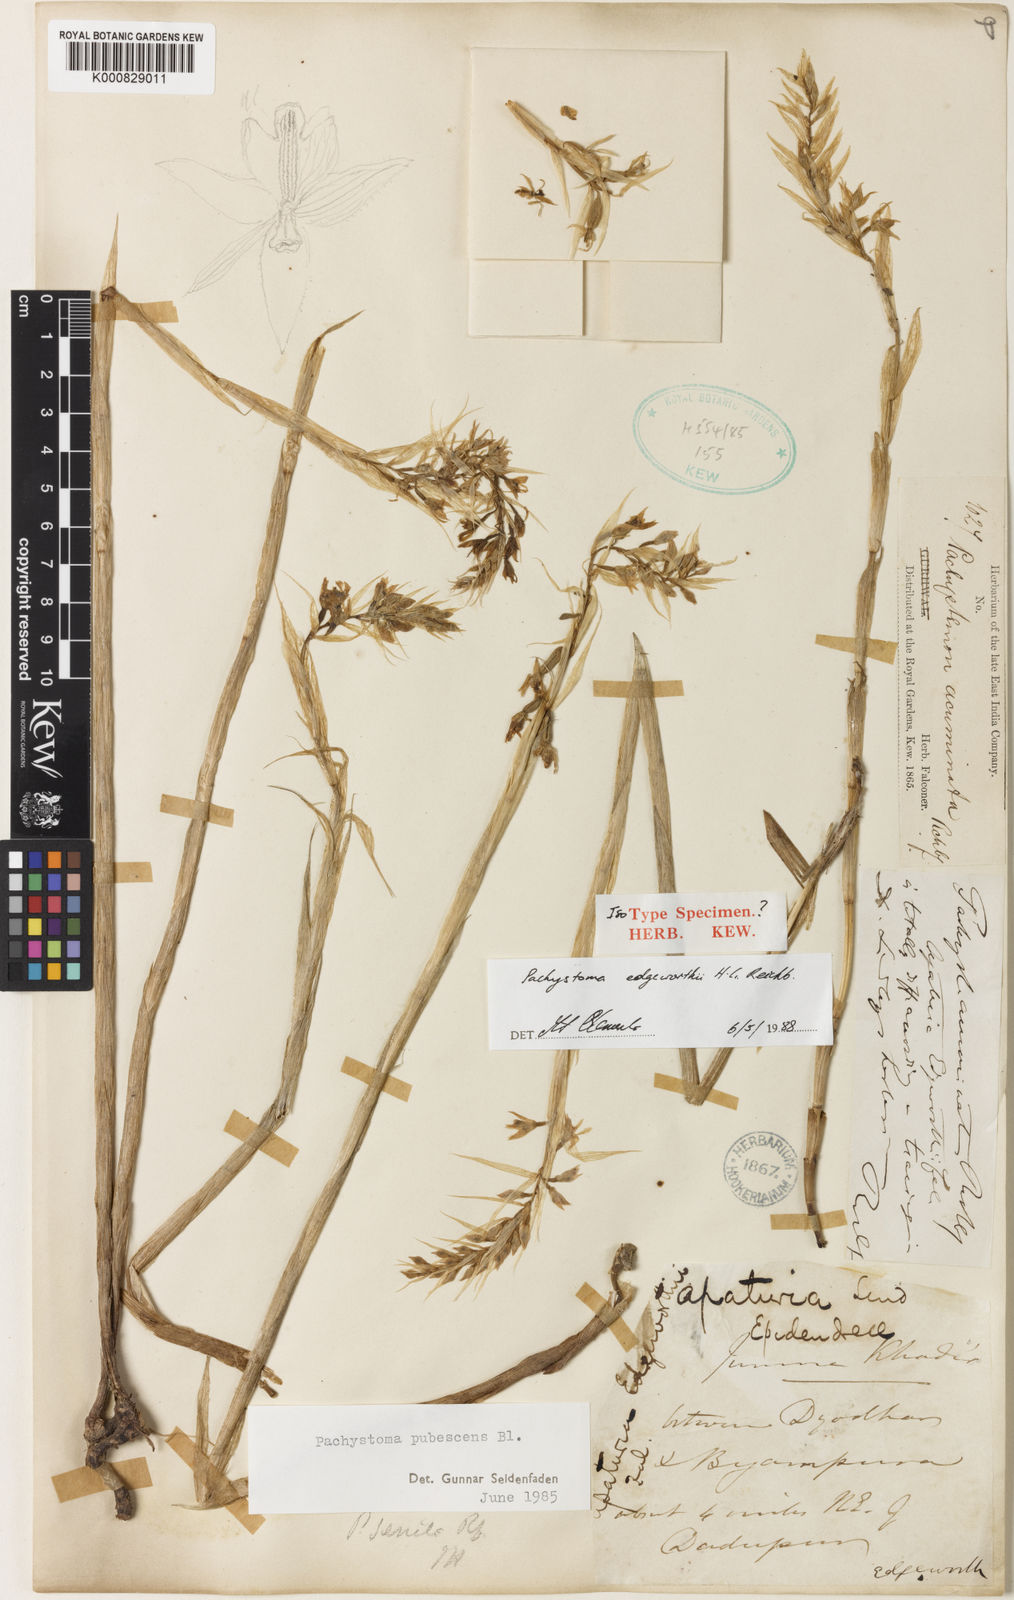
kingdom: Plantae
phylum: Tracheophyta
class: Liliopsida
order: Asparagales
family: Orchidaceae
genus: Pachystoma
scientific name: Pachystoma pubescens
